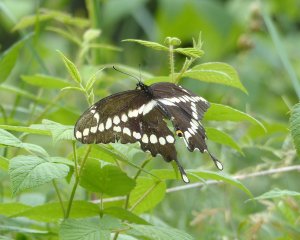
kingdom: Animalia
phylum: Arthropoda
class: Insecta
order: Lepidoptera
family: Papilionidae
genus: Papilio
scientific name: Papilio cresphontes
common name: Eastern Giant Swallowtail
